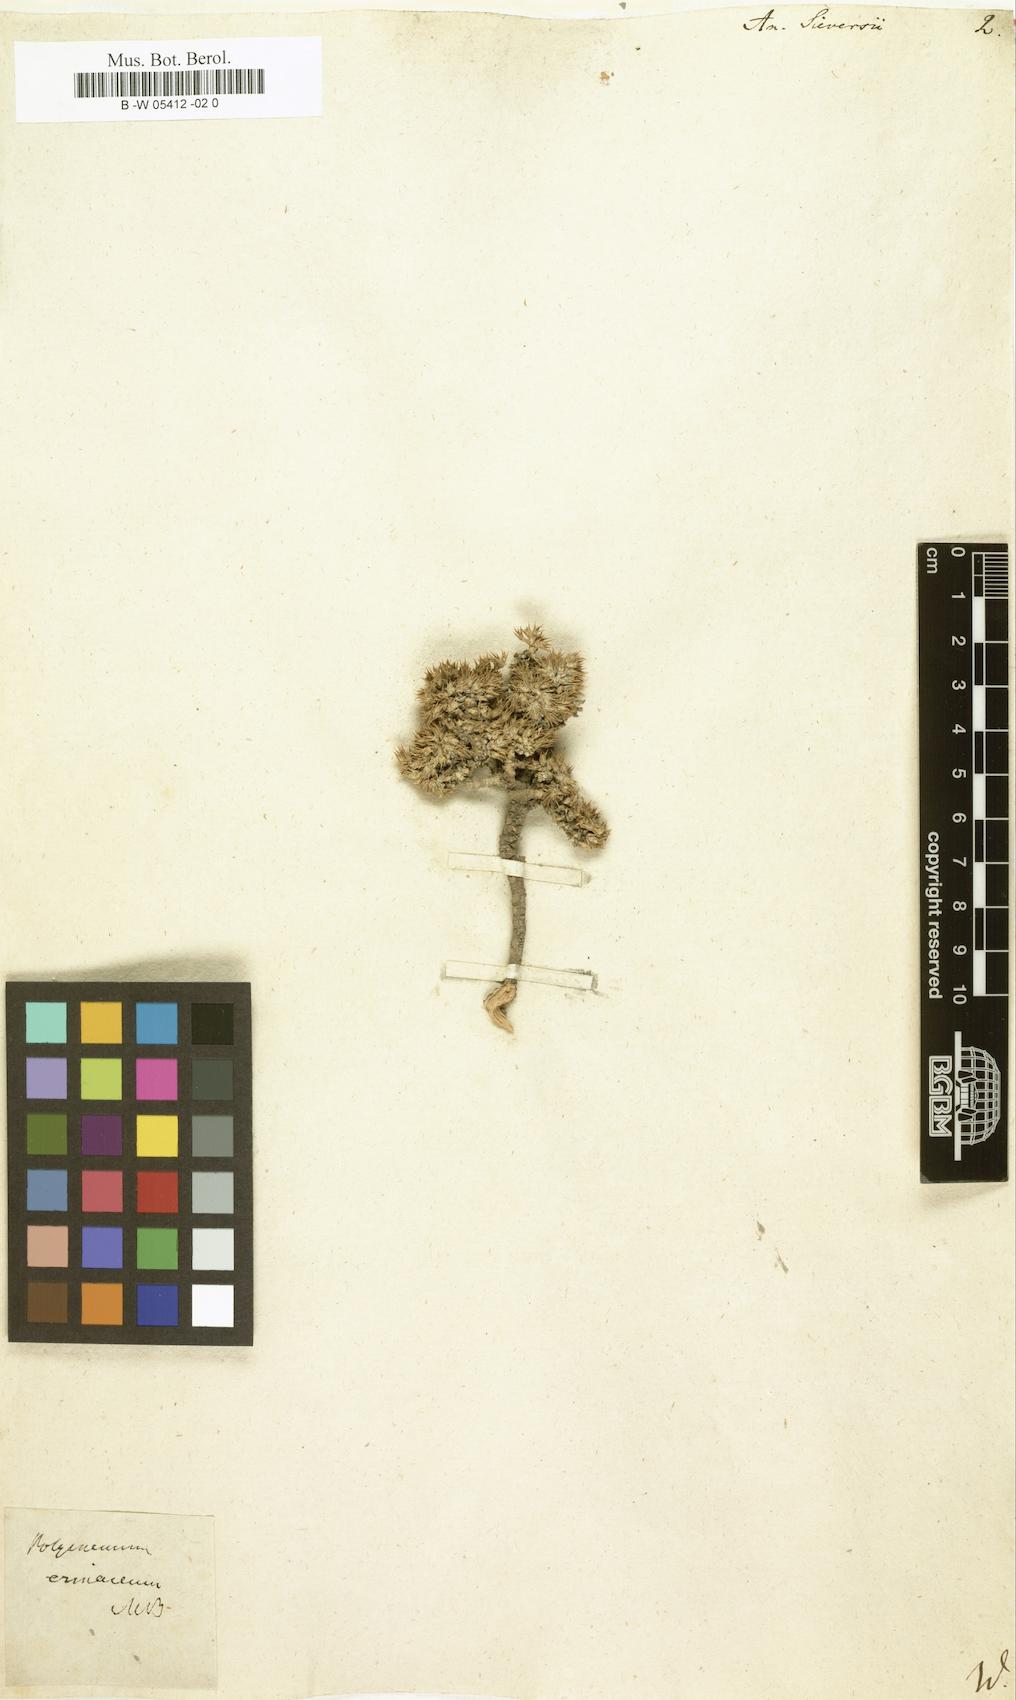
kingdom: Plantae
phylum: Tracheophyta
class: Magnoliopsida
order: Caryophyllales
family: Amaranthaceae
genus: Nanophyton
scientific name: Nanophyton erinaceum
